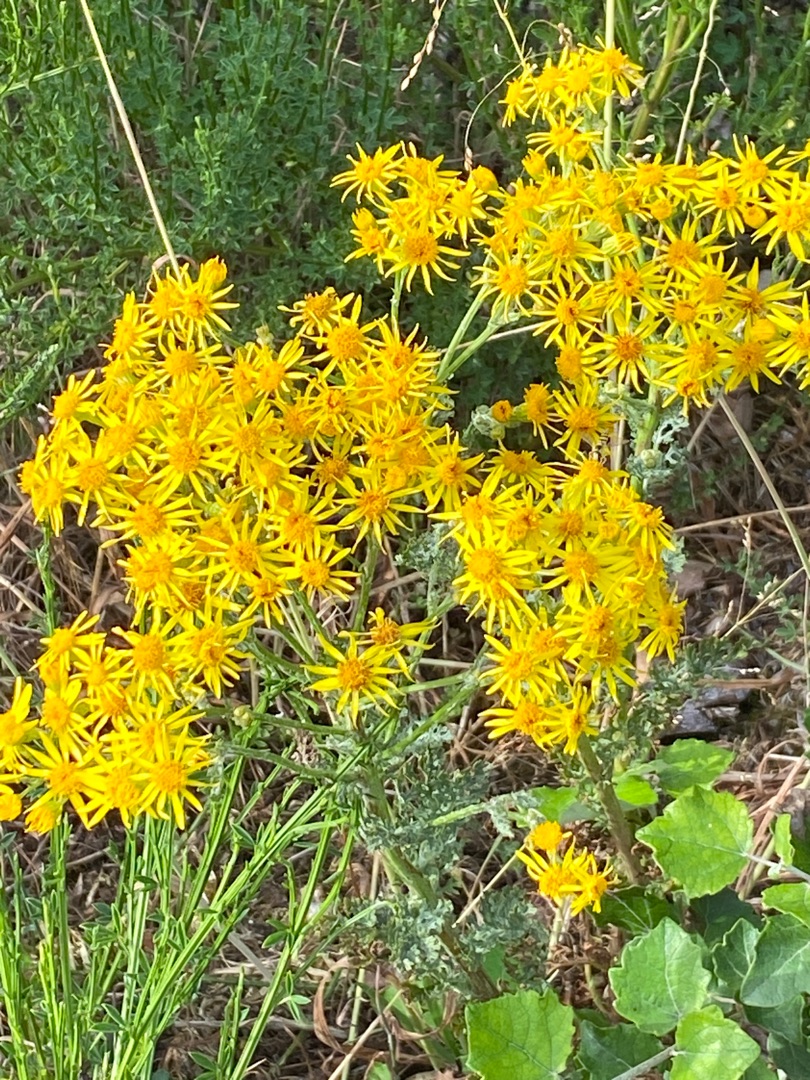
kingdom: Plantae
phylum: Tracheophyta
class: Magnoliopsida
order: Asterales
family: Asteraceae
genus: Jacobaea
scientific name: Jacobaea vulgaris
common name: Eng-brandbæger
